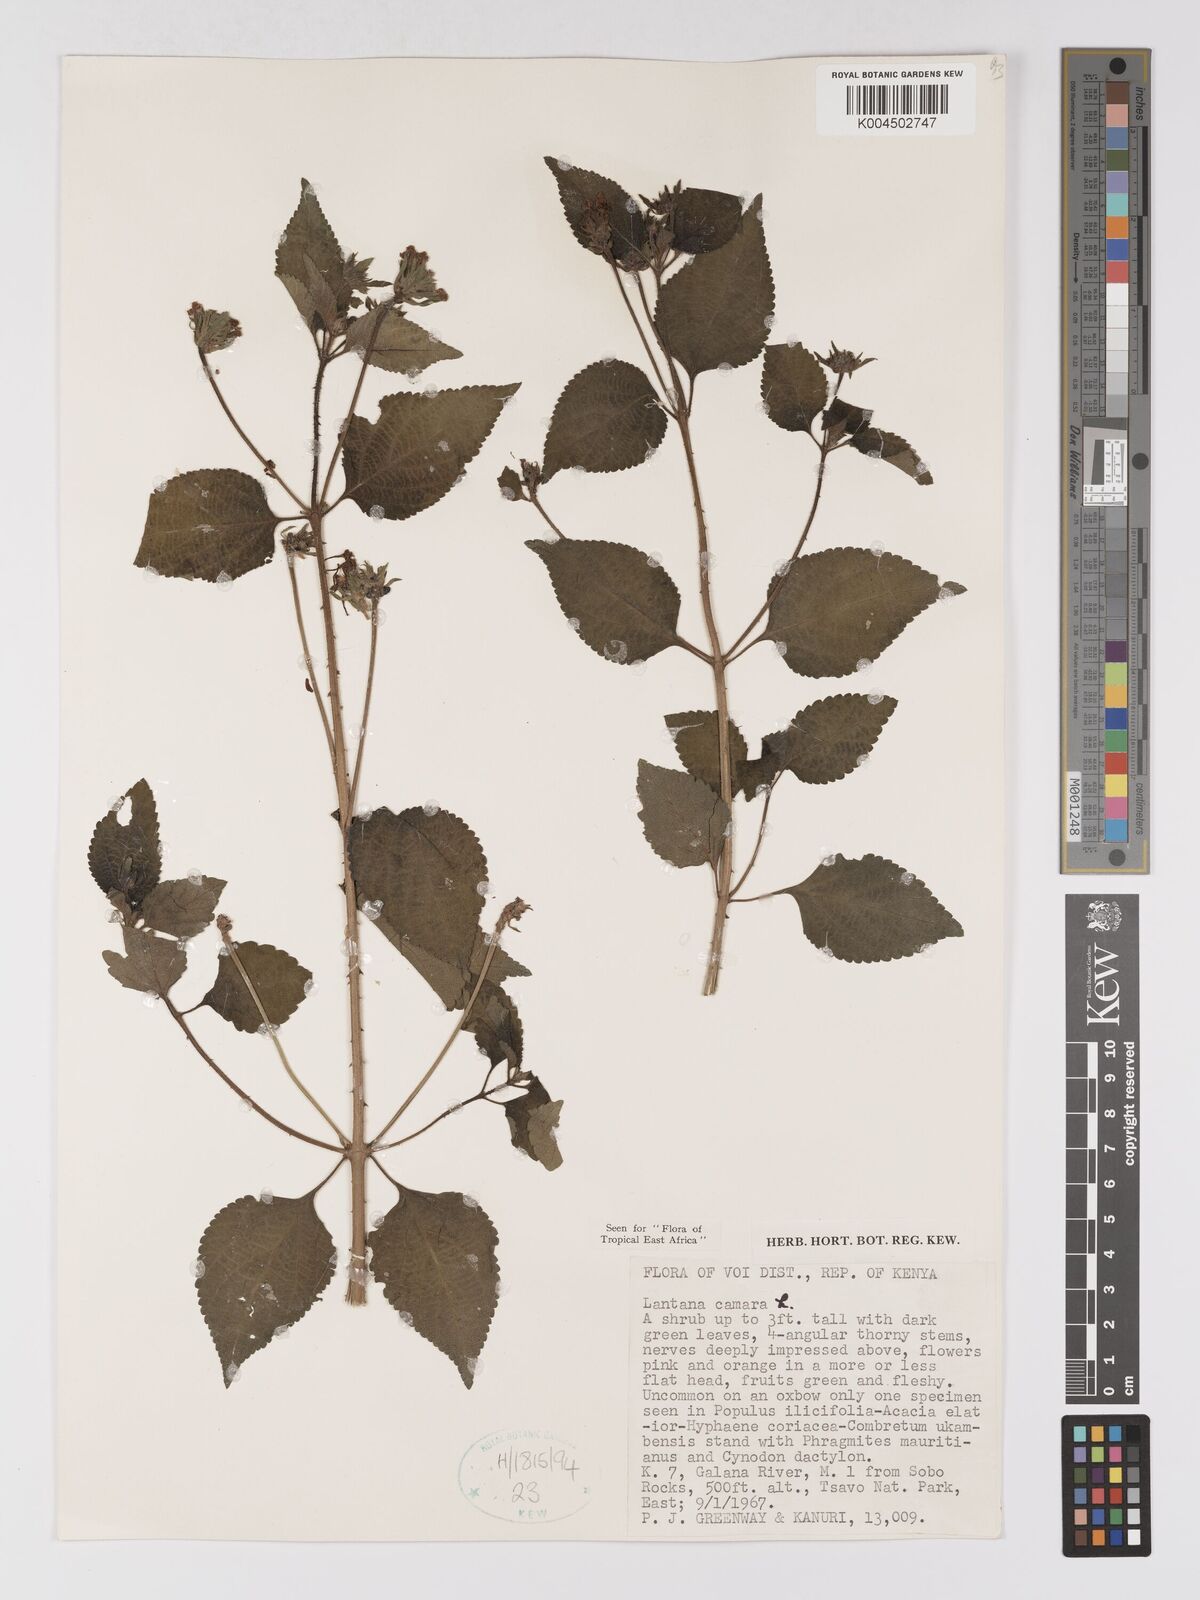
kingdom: Plantae
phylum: Tracheophyta
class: Magnoliopsida
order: Lamiales
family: Verbenaceae
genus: Lantana
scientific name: Lantana camara
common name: Lantana
